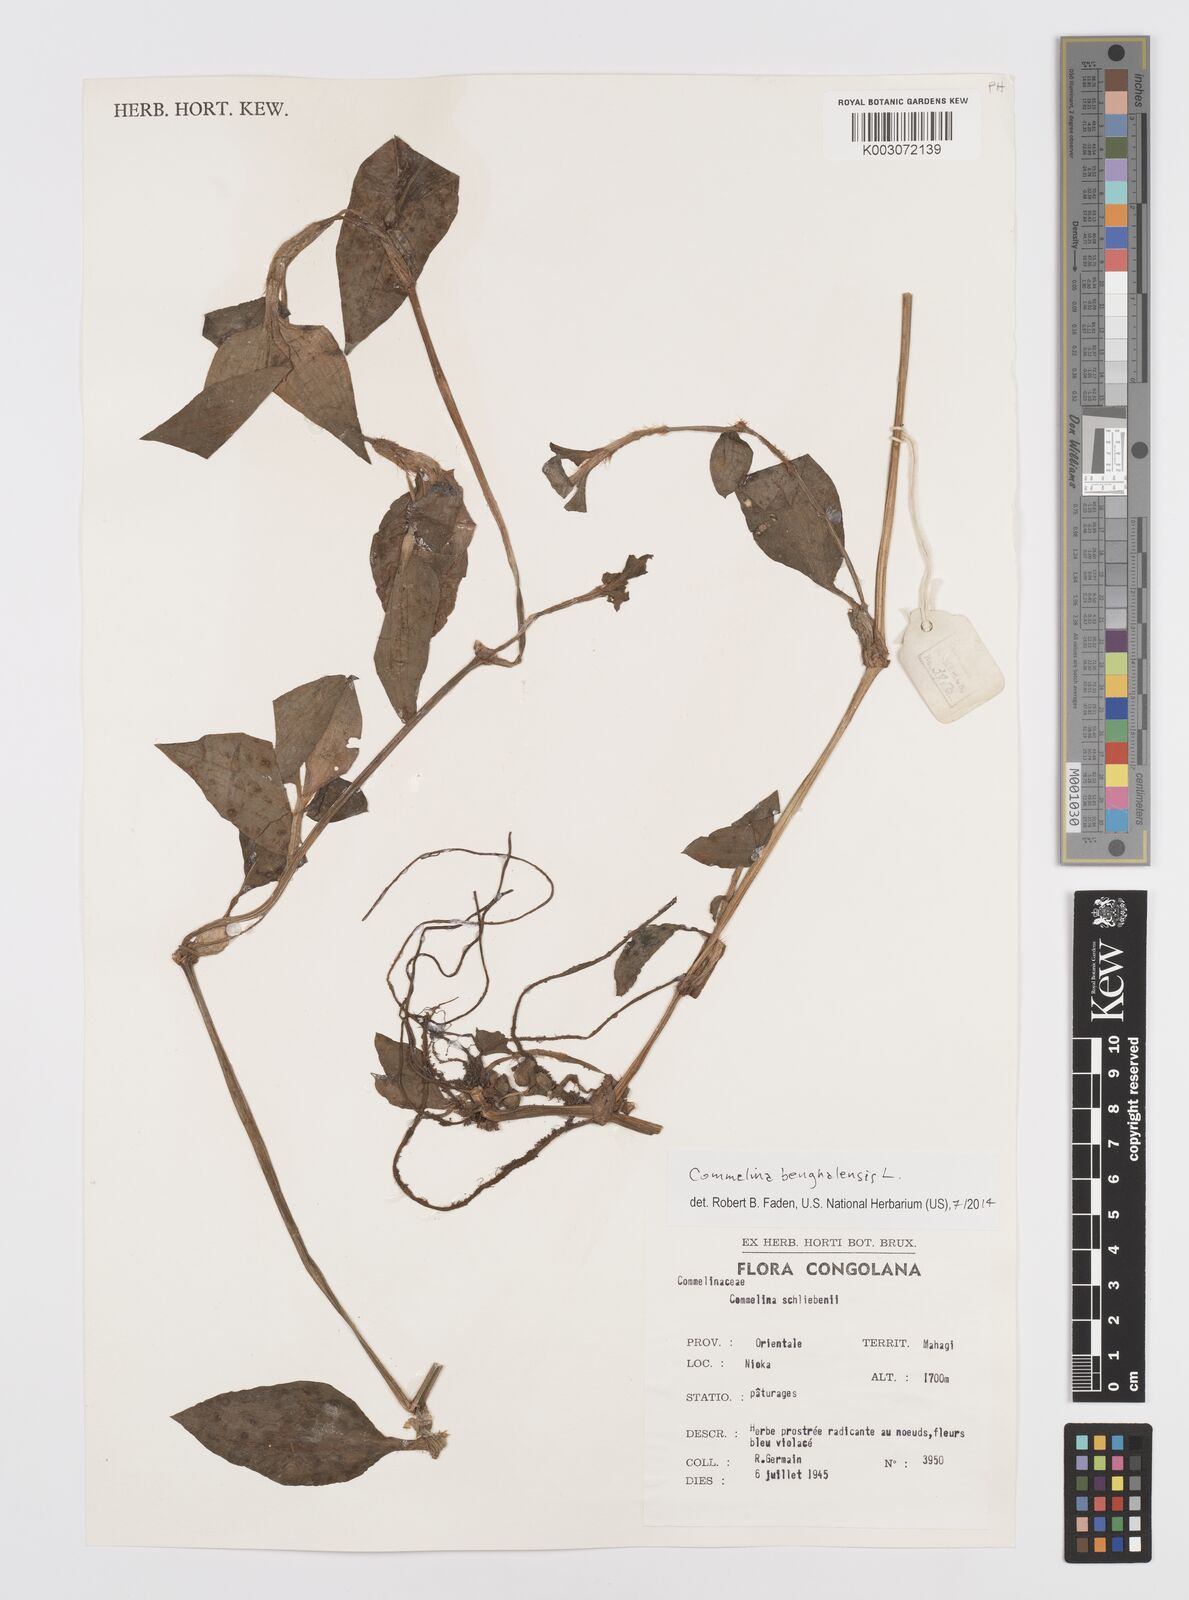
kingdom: Plantae
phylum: Tracheophyta
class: Liliopsida
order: Commelinales
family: Commelinaceae
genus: Commelina
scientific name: Commelina benghalensis
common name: Jio
